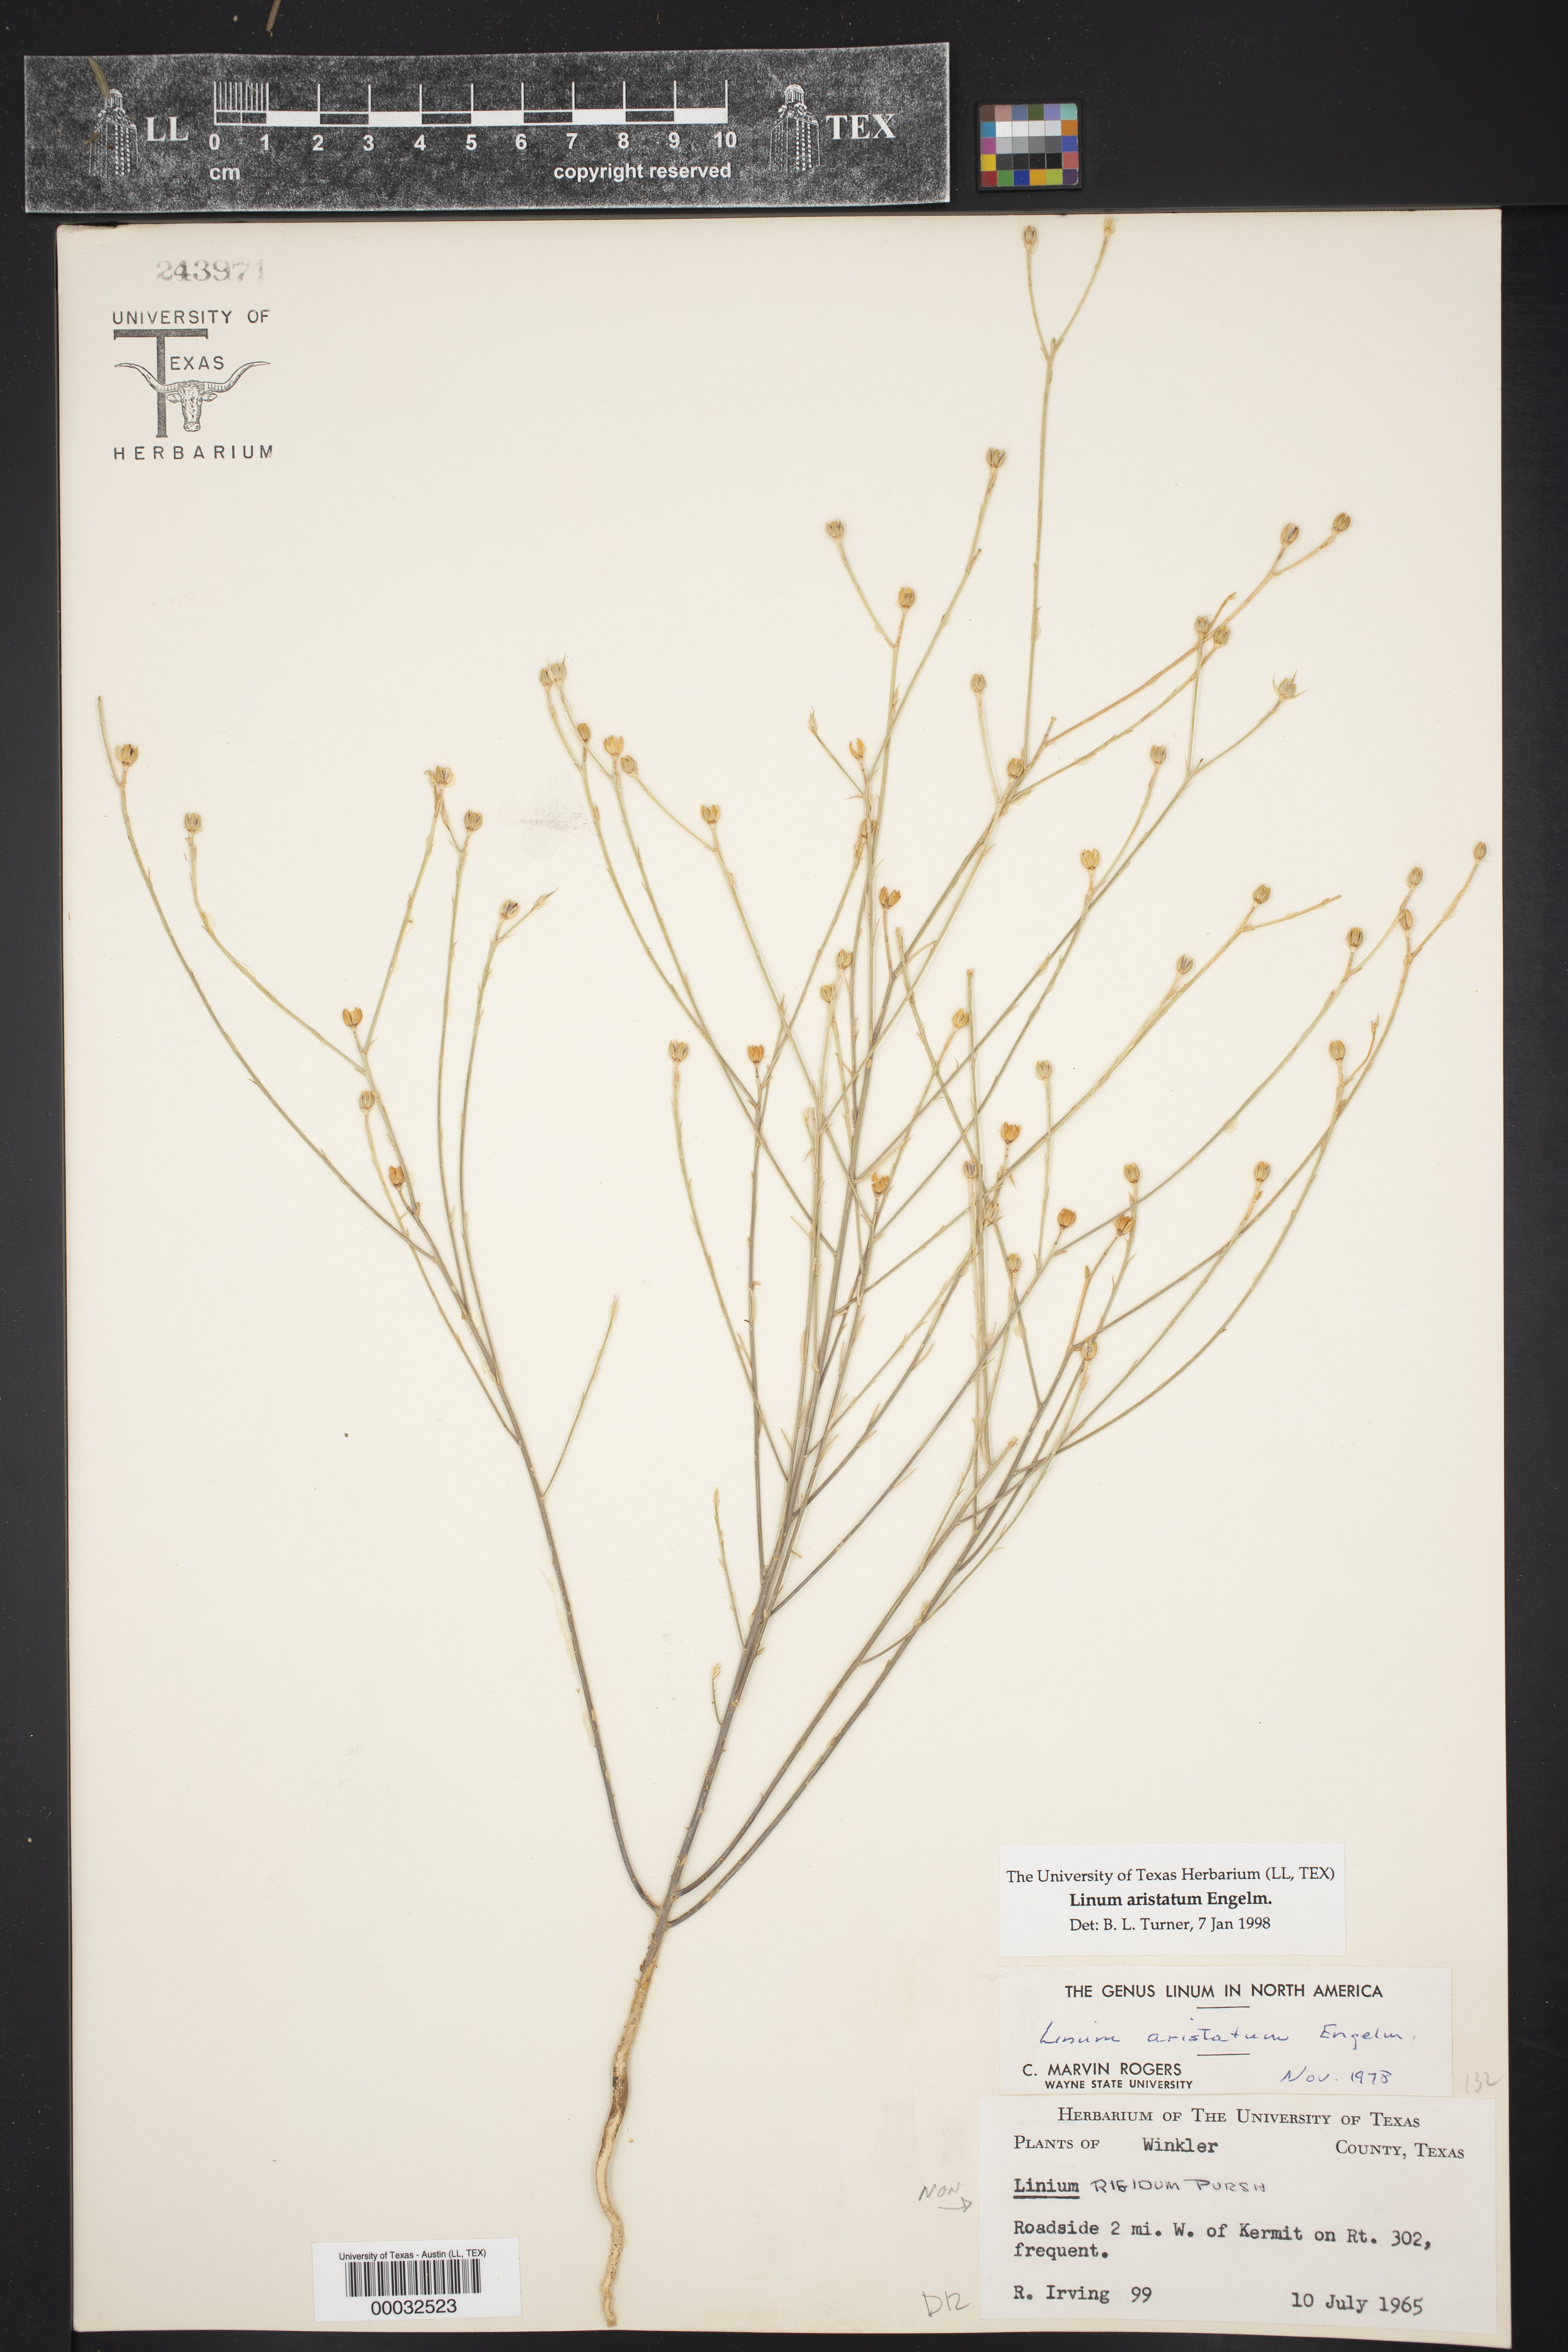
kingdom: Plantae
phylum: Tracheophyta
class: Magnoliopsida
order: Malpighiales
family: Linaceae
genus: Linum
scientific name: Linum aristatum
